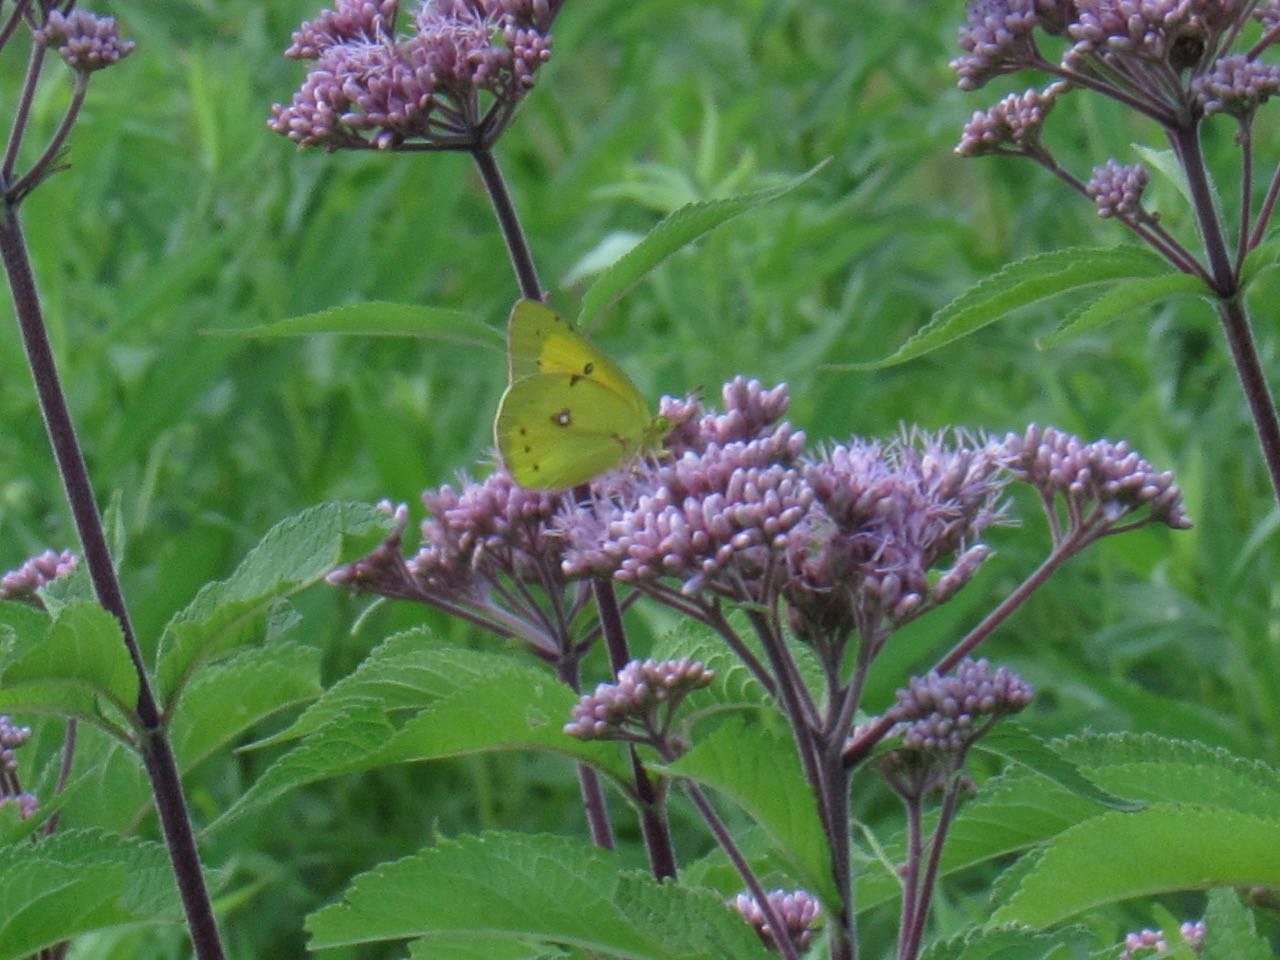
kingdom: Animalia
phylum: Arthropoda
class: Insecta
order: Lepidoptera
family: Pieridae
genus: Colias
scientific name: Colias eurytheme
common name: Orange Sulphur
